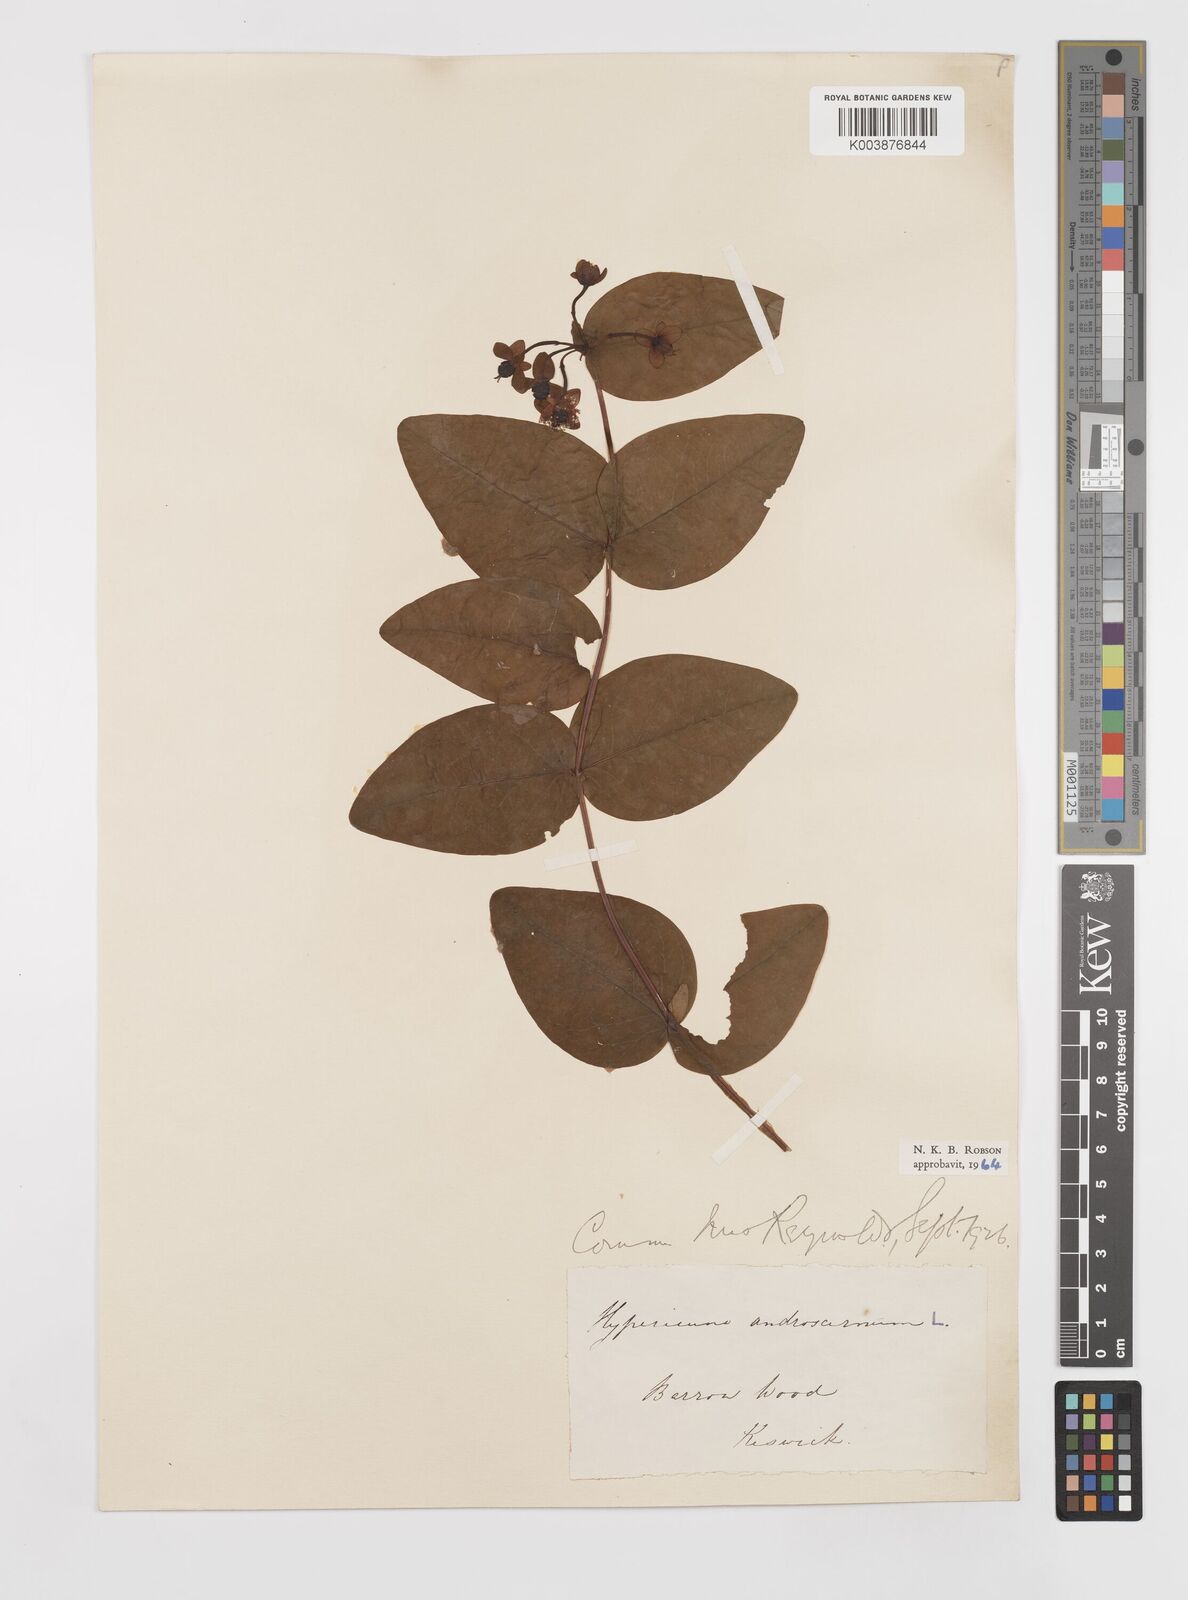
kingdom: Plantae
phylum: Tracheophyta
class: Magnoliopsida
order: Malpighiales
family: Hypericaceae
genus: Hypericum
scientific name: Hypericum androsaemum
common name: Sweet-amber
